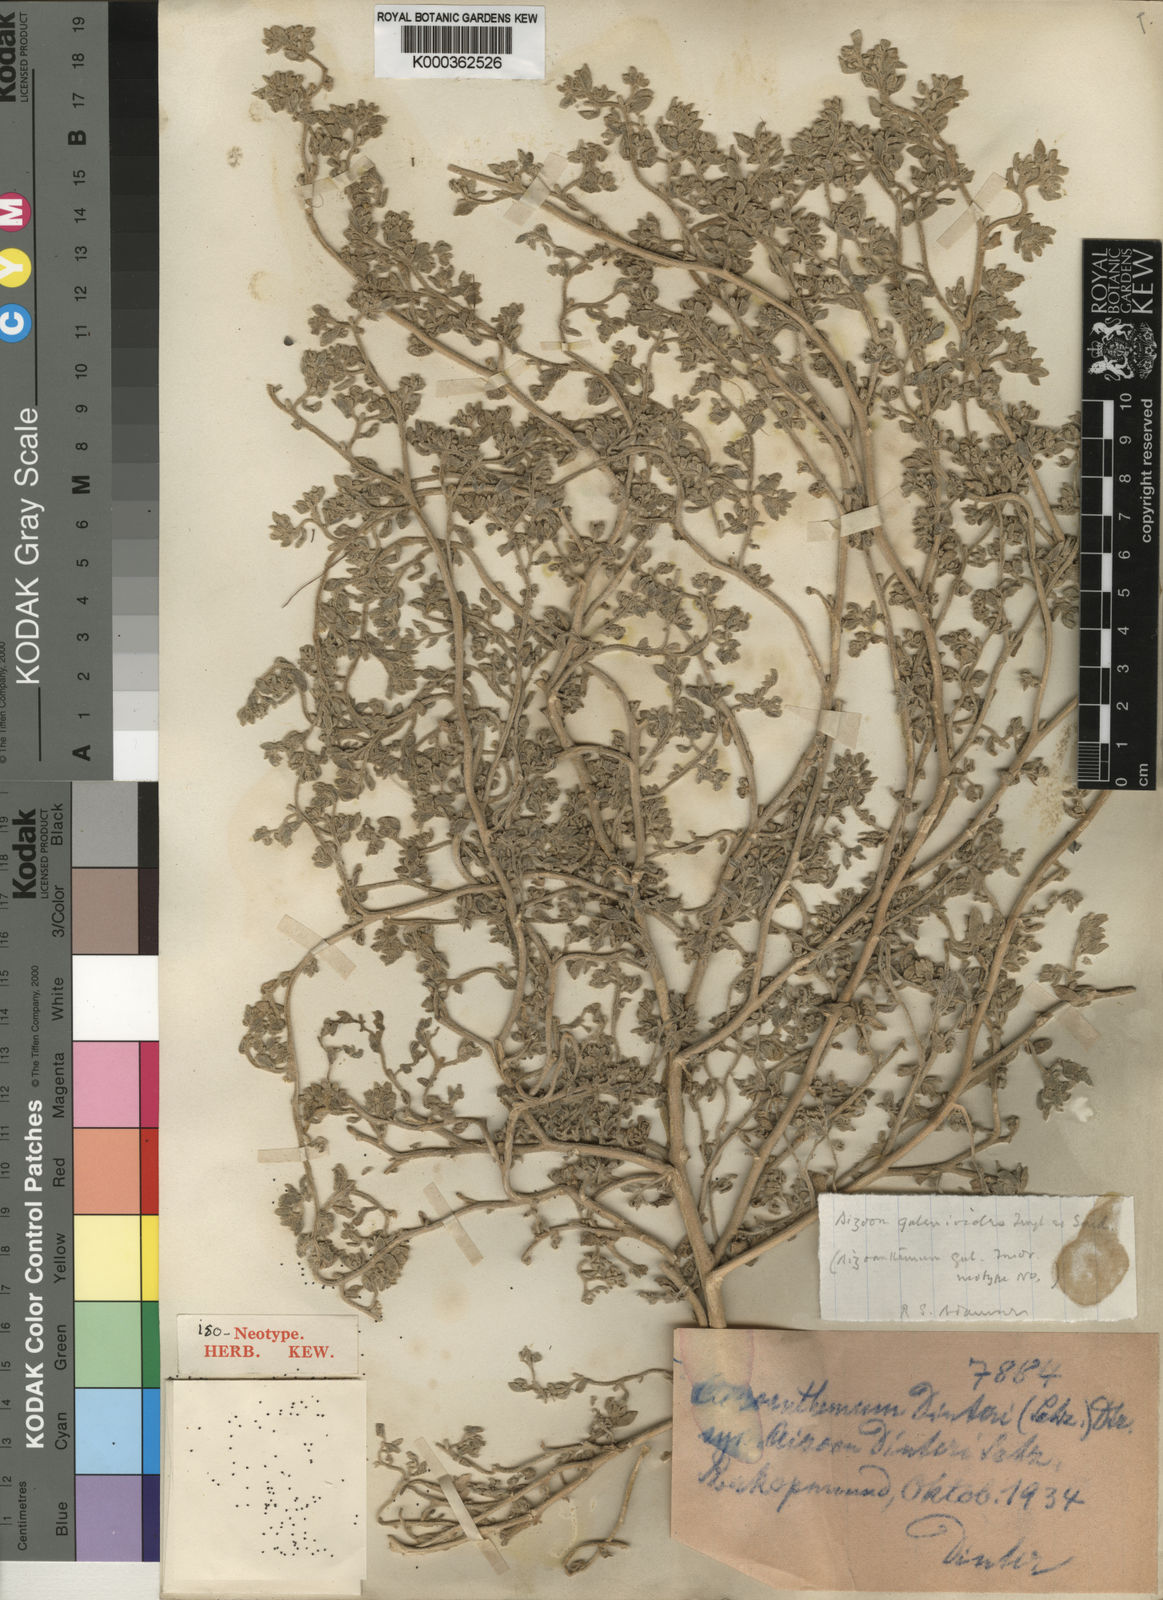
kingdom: Plantae
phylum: Tracheophyta
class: Magnoliopsida
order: Caryophyllales
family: Aizoaceae
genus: Aizoanthemum
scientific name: Aizoanthemum galenioides
